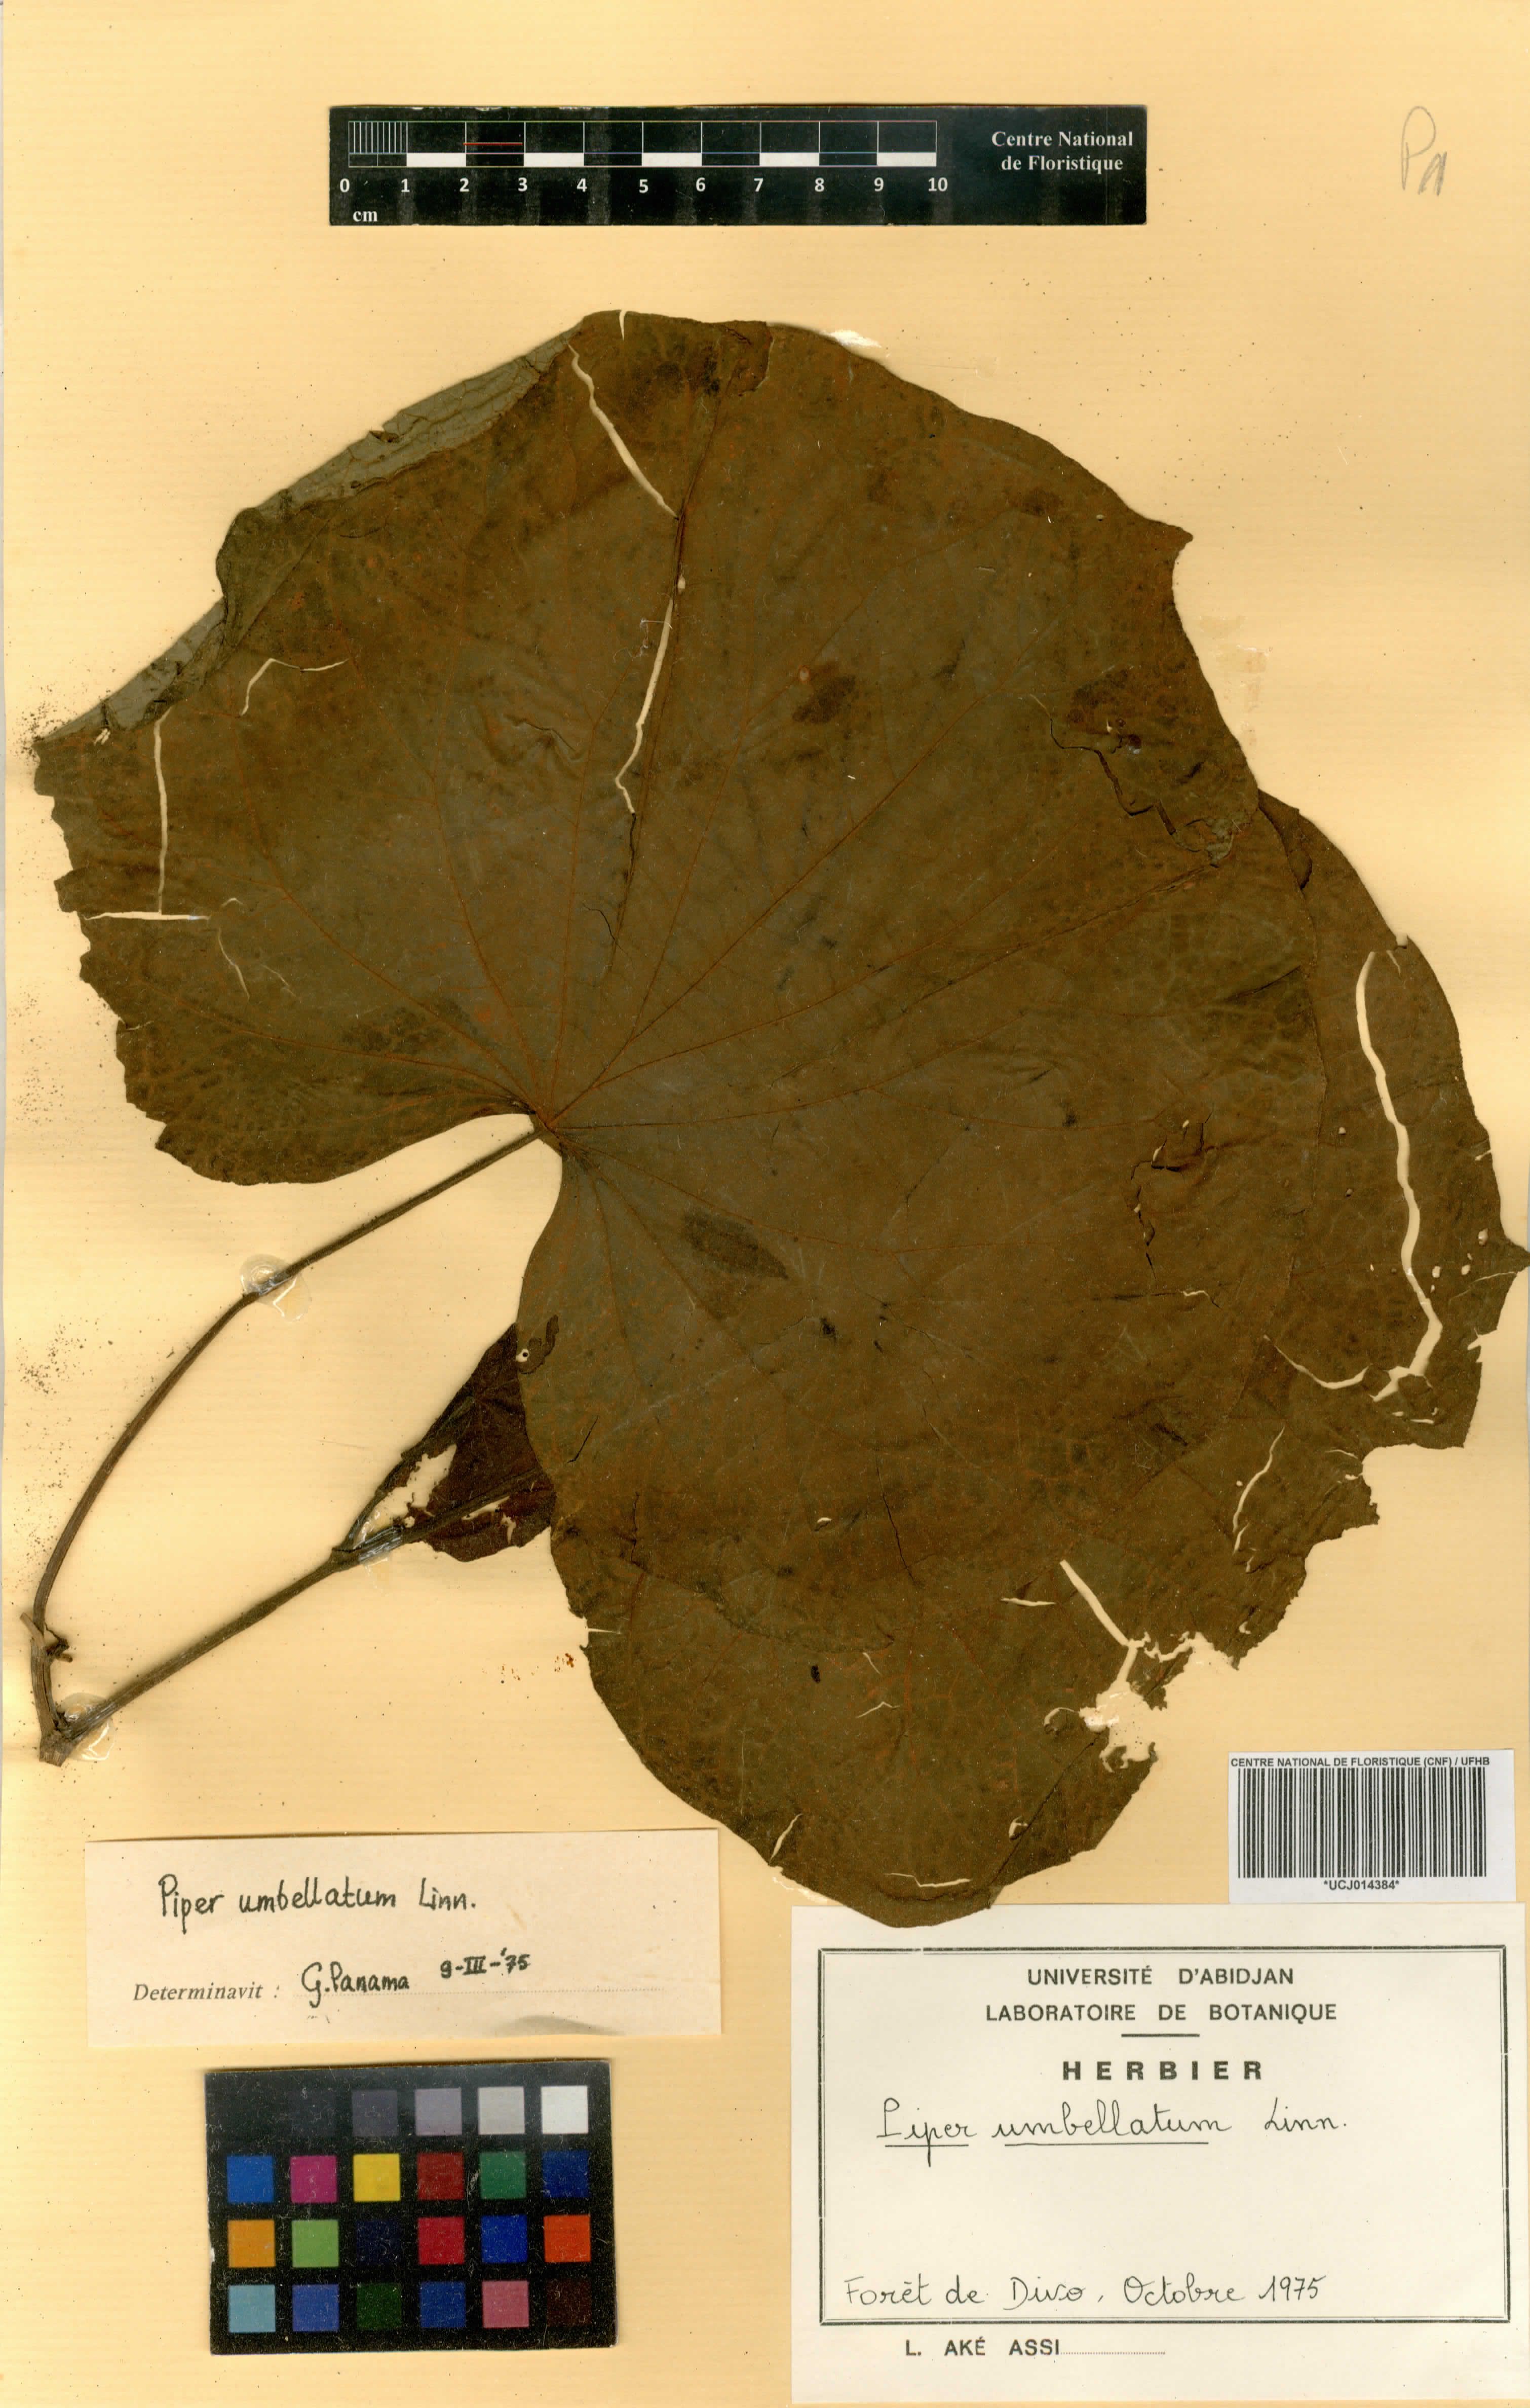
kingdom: Plantae
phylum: Tracheophyta
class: Magnoliopsida
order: Piperales
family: Piperaceae
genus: Piper
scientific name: Piper umbellatum
